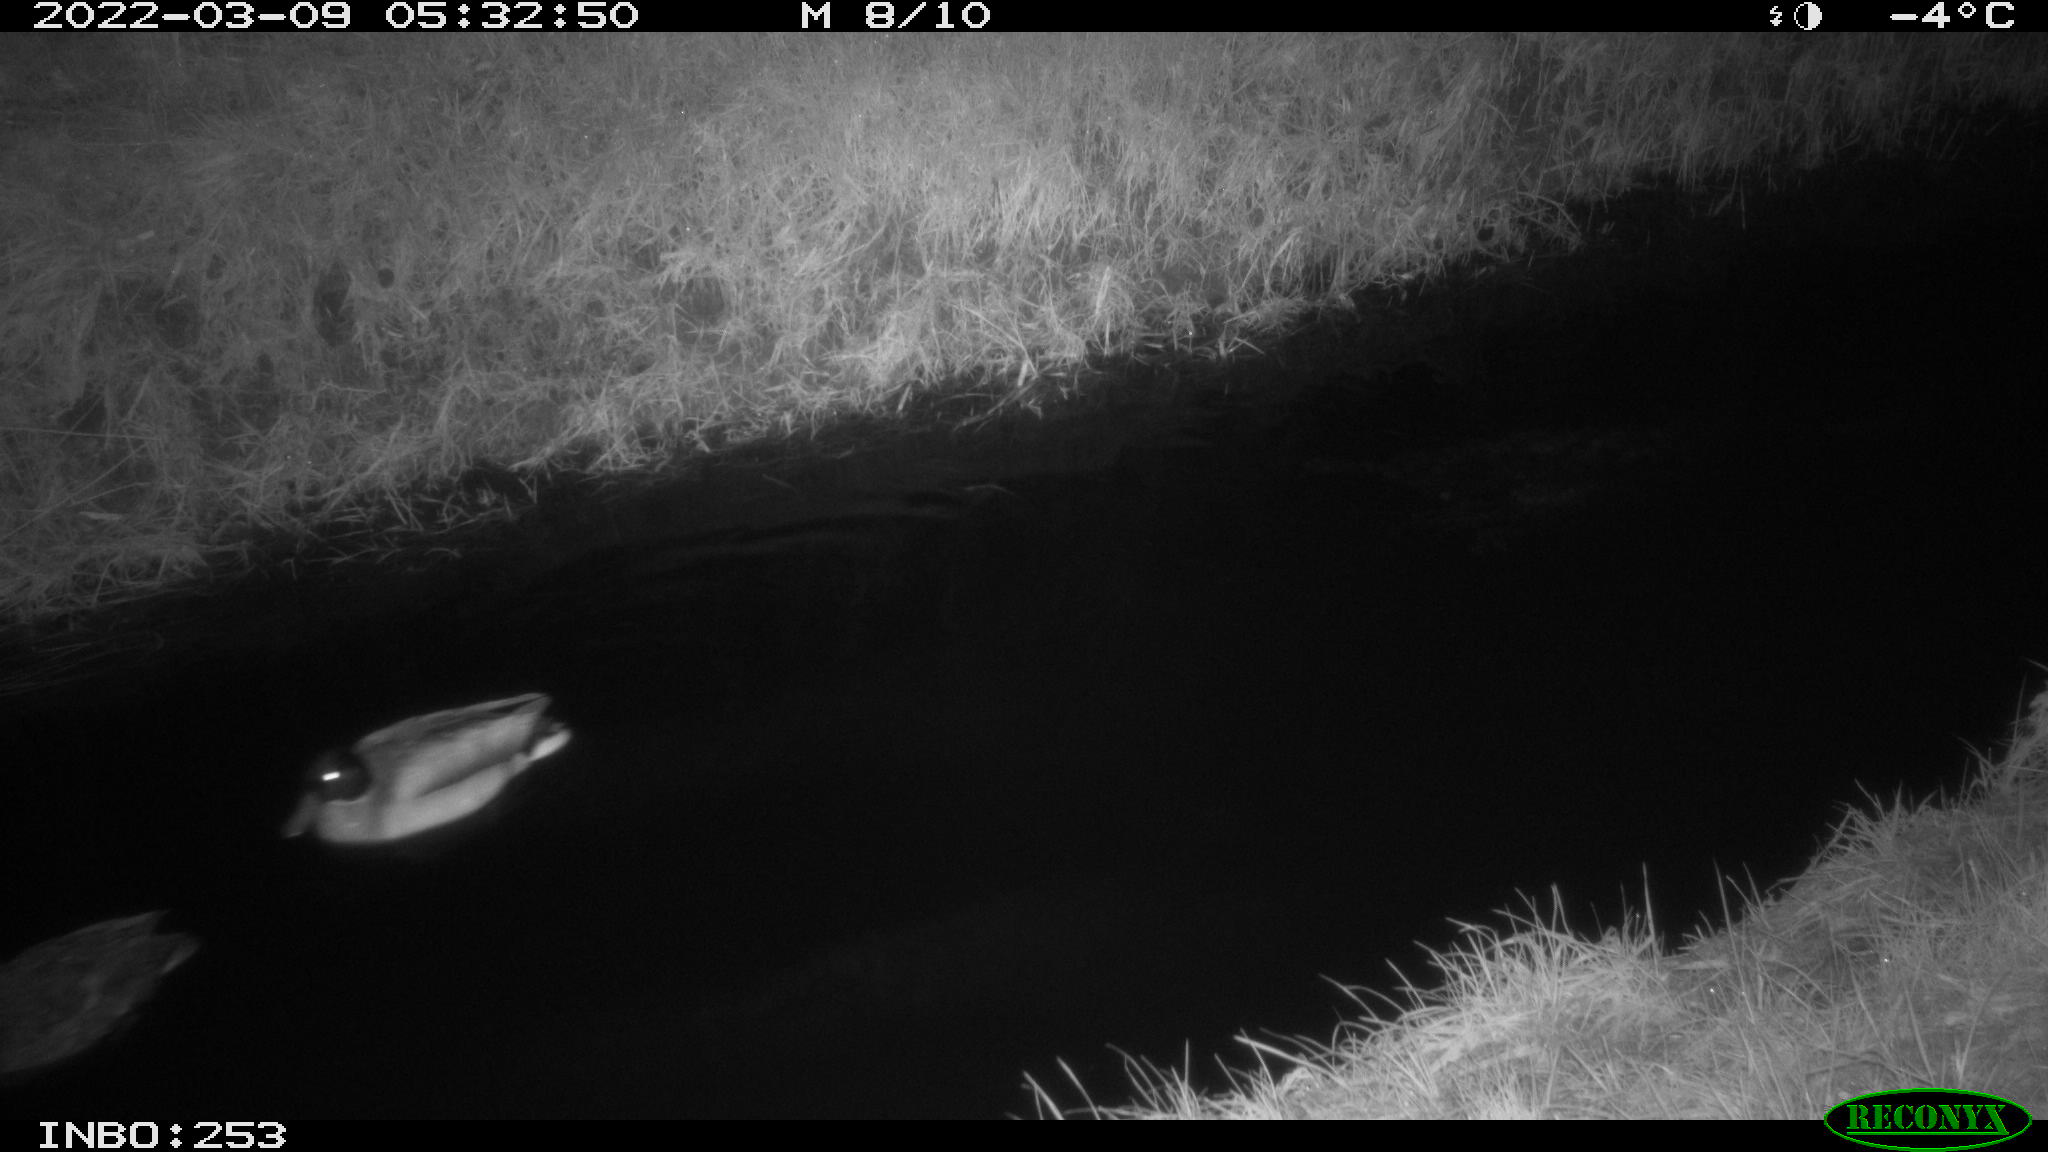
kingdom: Animalia
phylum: Chordata
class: Aves
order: Anseriformes
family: Anatidae
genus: Anas
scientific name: Anas platyrhynchos
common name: Mallard
